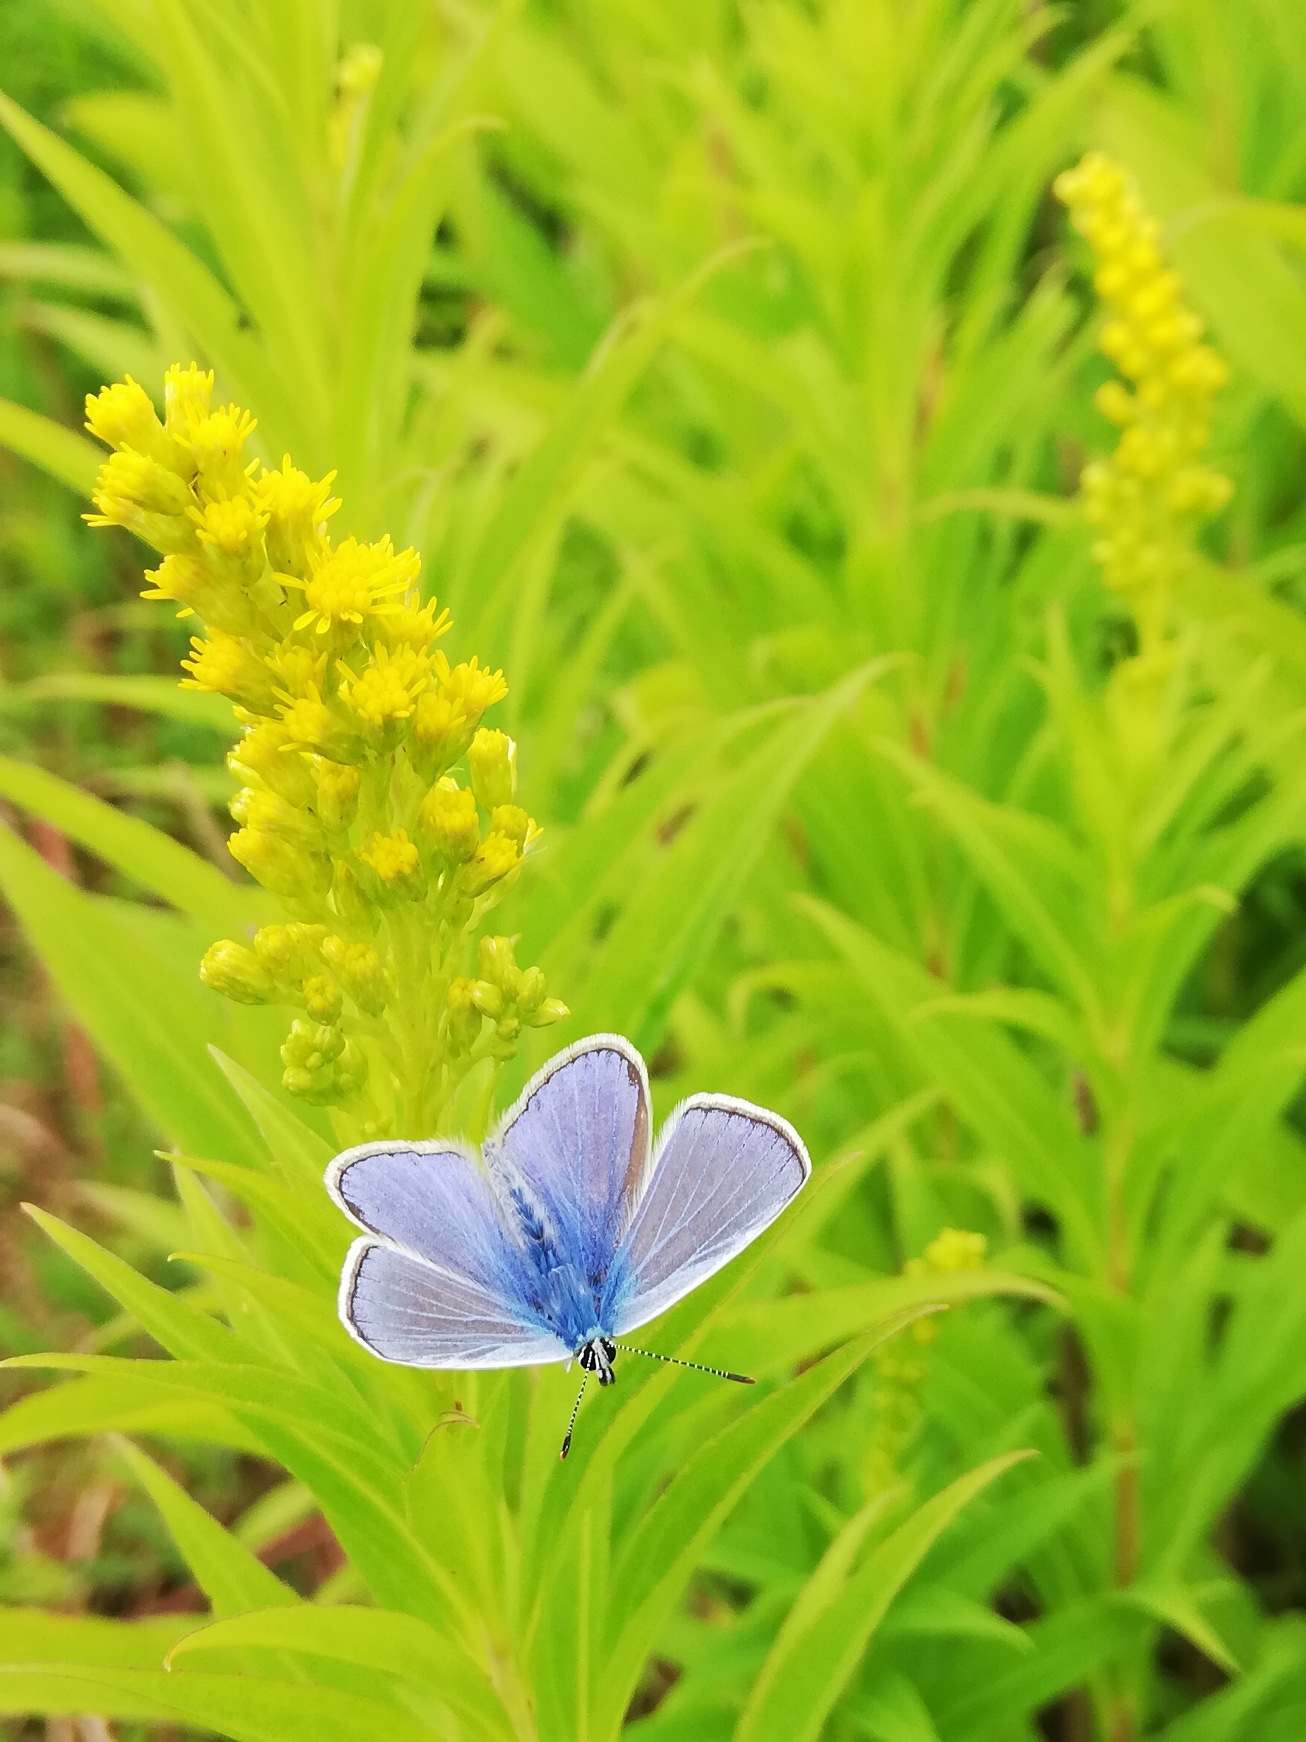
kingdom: Animalia
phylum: Arthropoda
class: Insecta
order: Lepidoptera
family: Lycaenidae
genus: Polyommatus
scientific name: Polyommatus icarus
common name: Almindelig blåfugl
